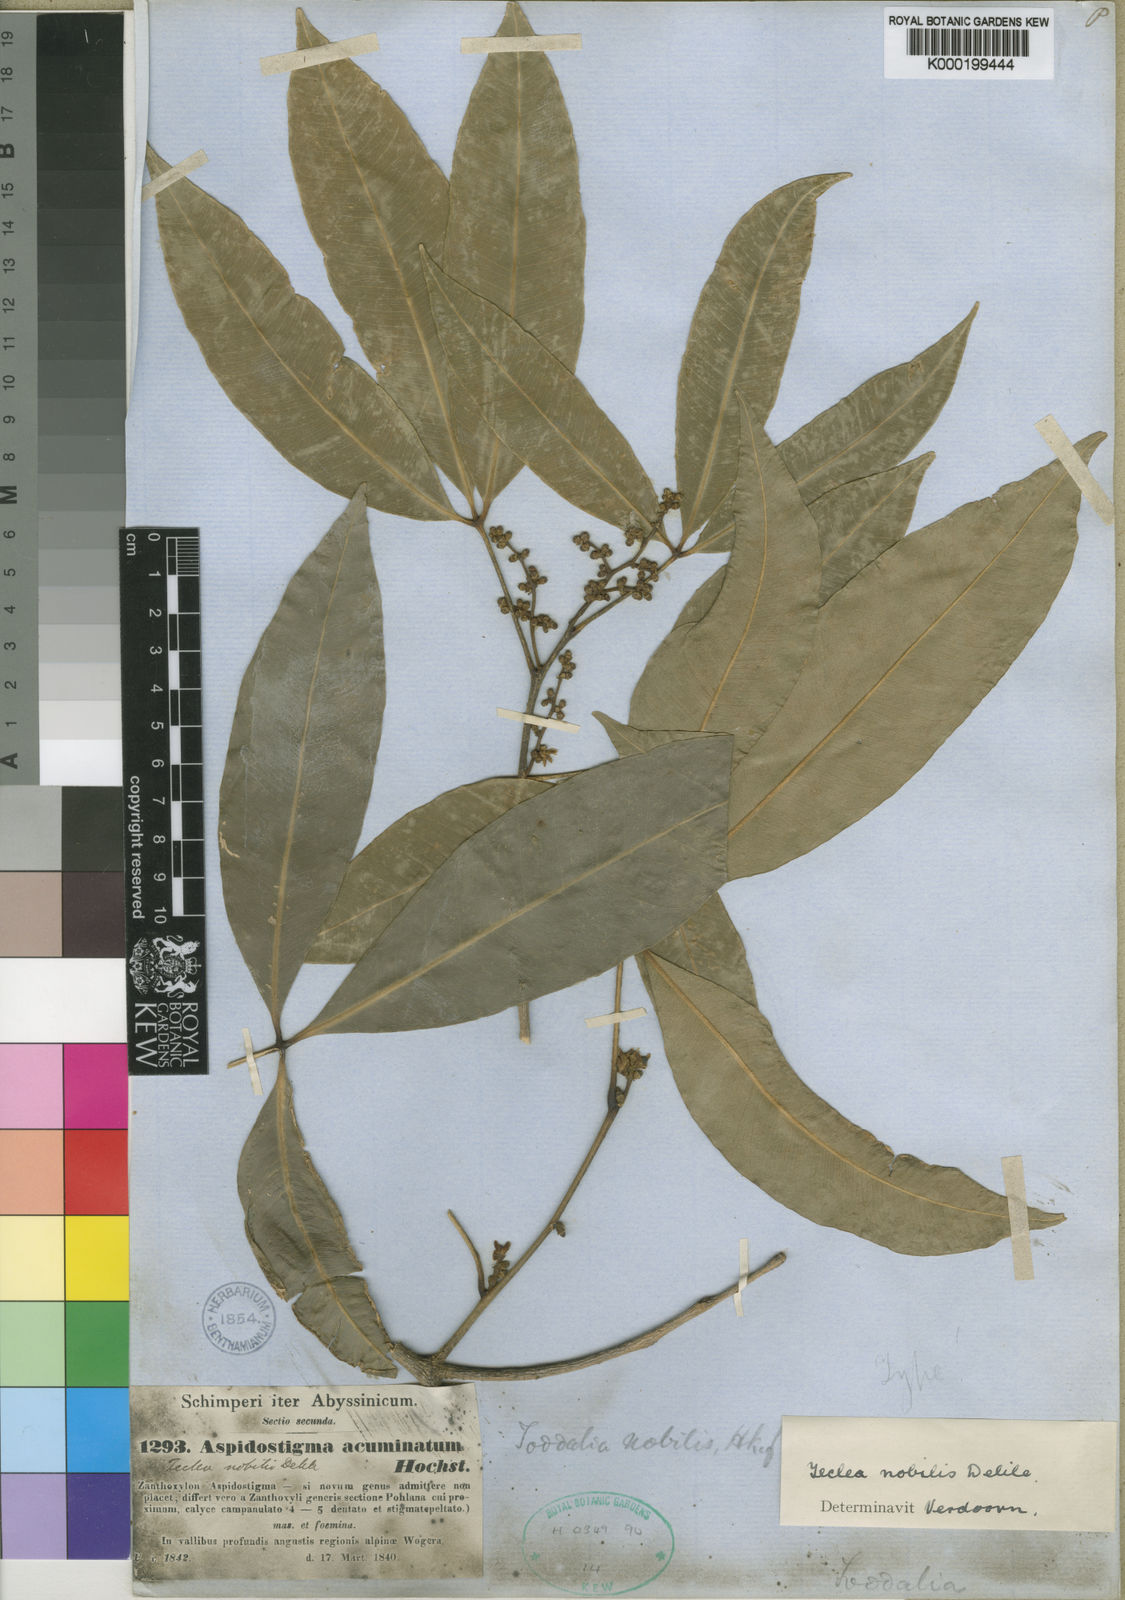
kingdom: Plantae
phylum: Tracheophyta
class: Magnoliopsida
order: Sapindales
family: Rutaceae
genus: Vepris
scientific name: Vepris nobilis
